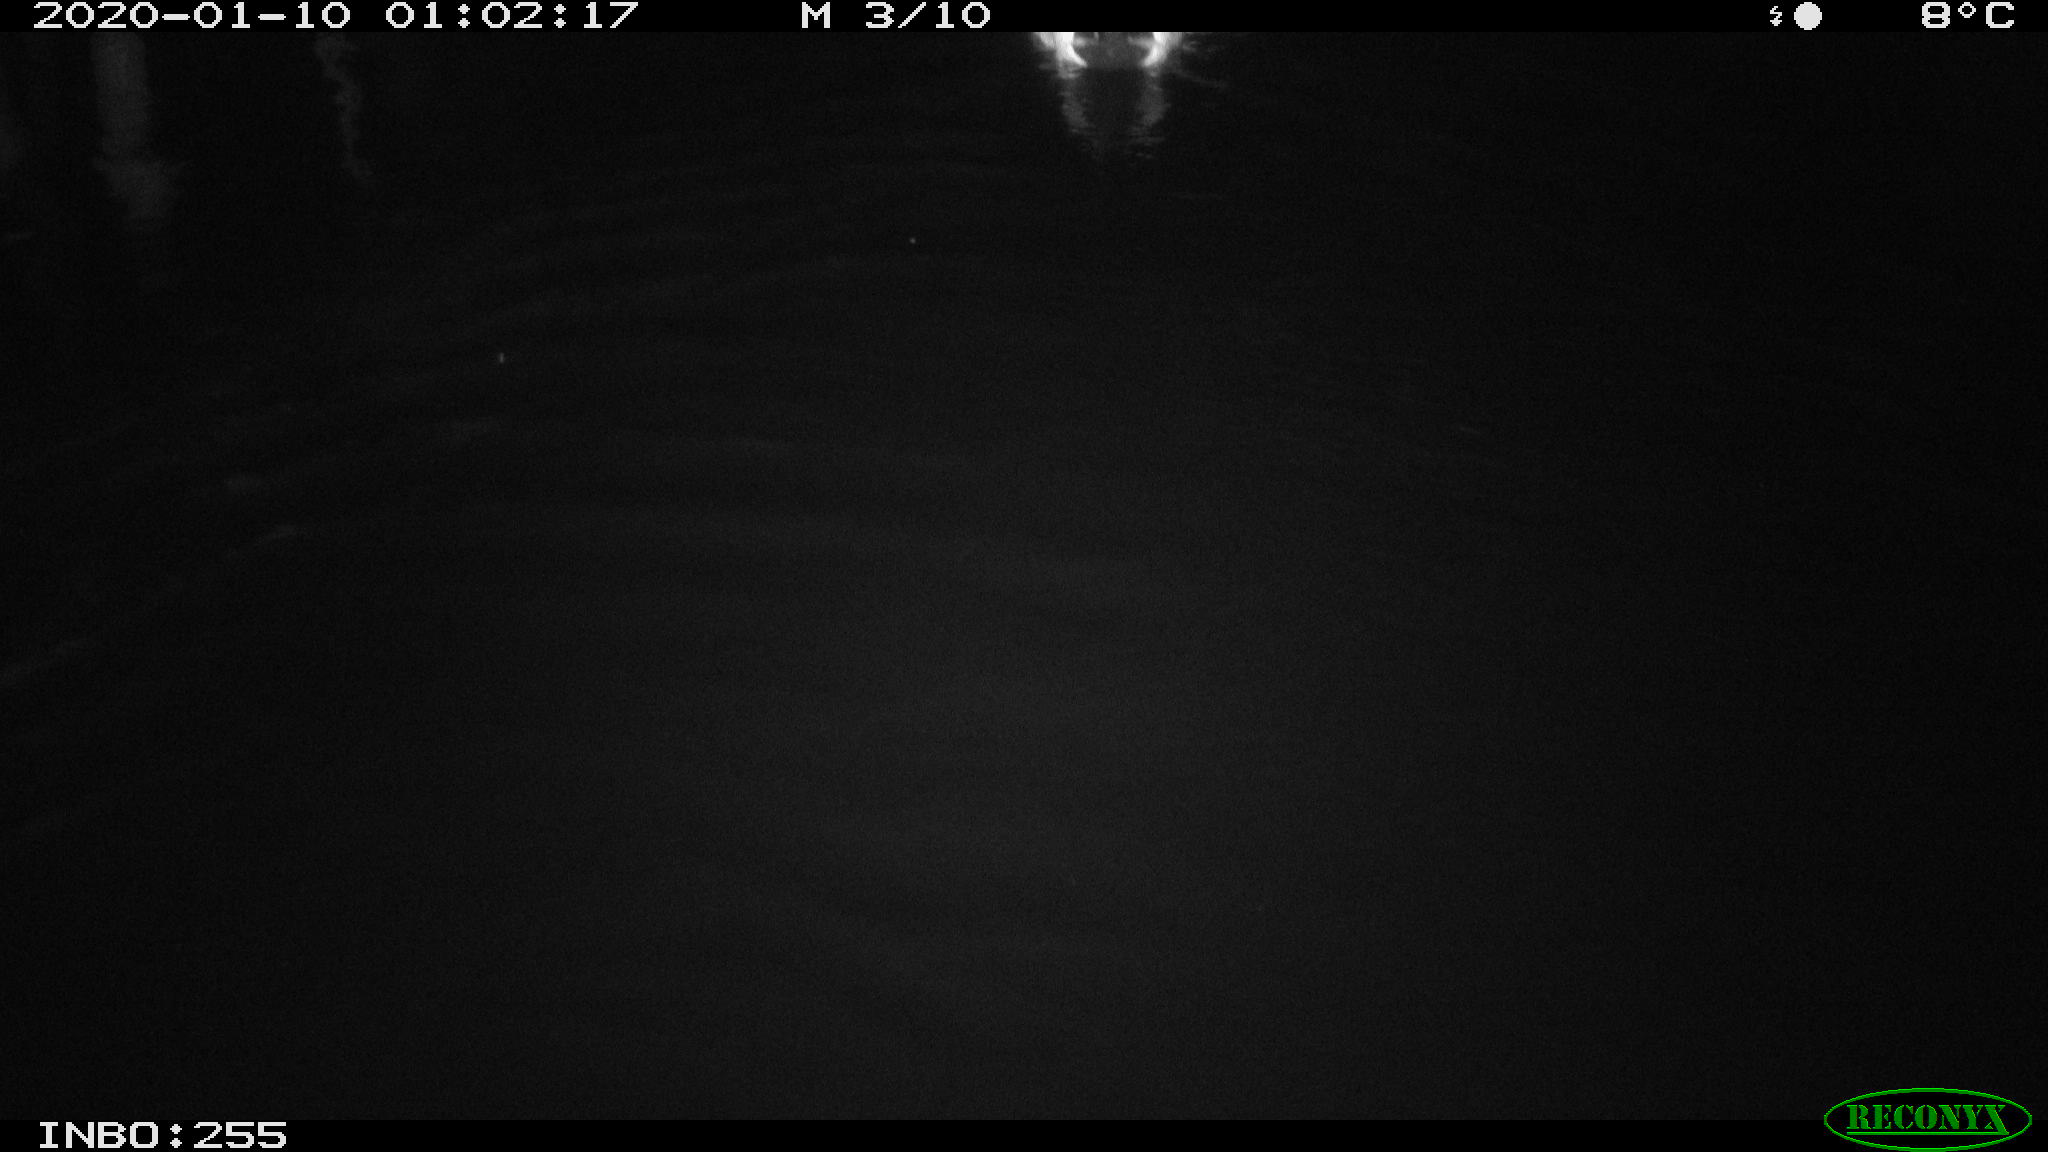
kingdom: Animalia
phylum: Chordata
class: Aves
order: Anseriformes
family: Anatidae
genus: Anas
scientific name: Anas platyrhynchos
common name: Mallard
